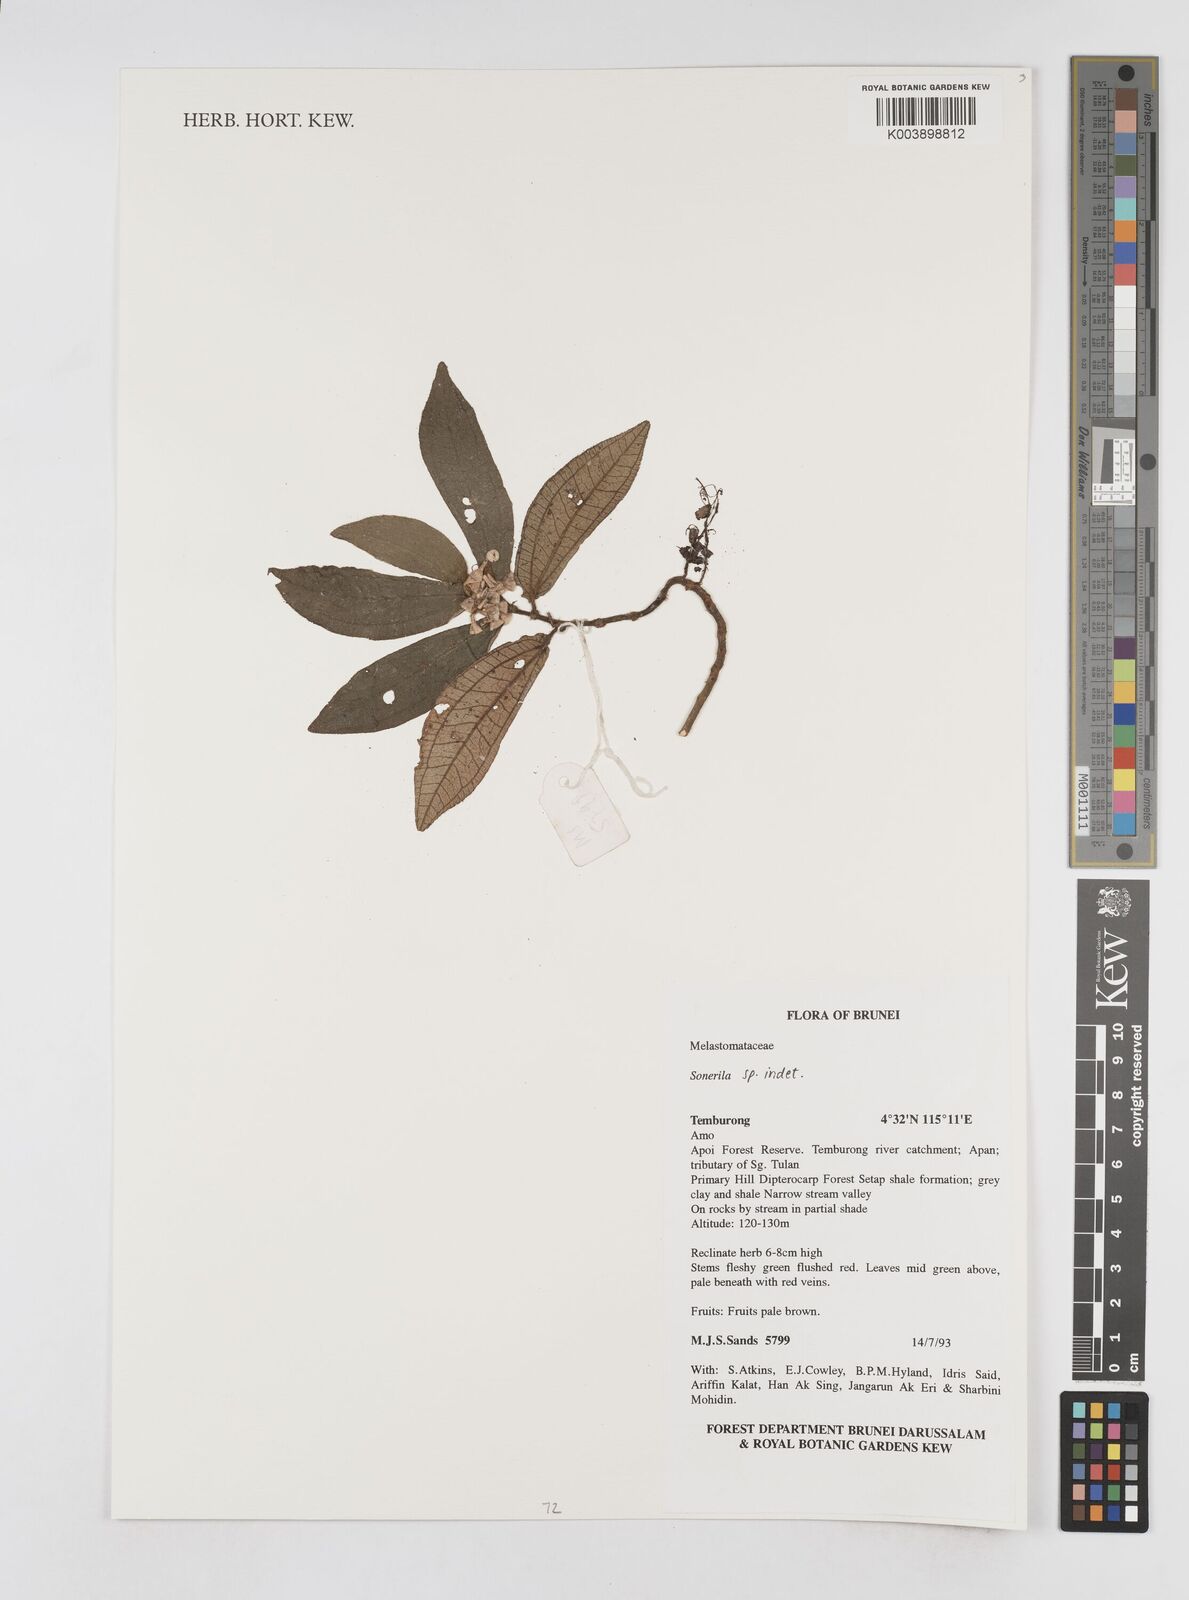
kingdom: Plantae
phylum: Tracheophyta
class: Magnoliopsida
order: Myrtales
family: Melastomataceae
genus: Sonerila
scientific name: Sonerila
